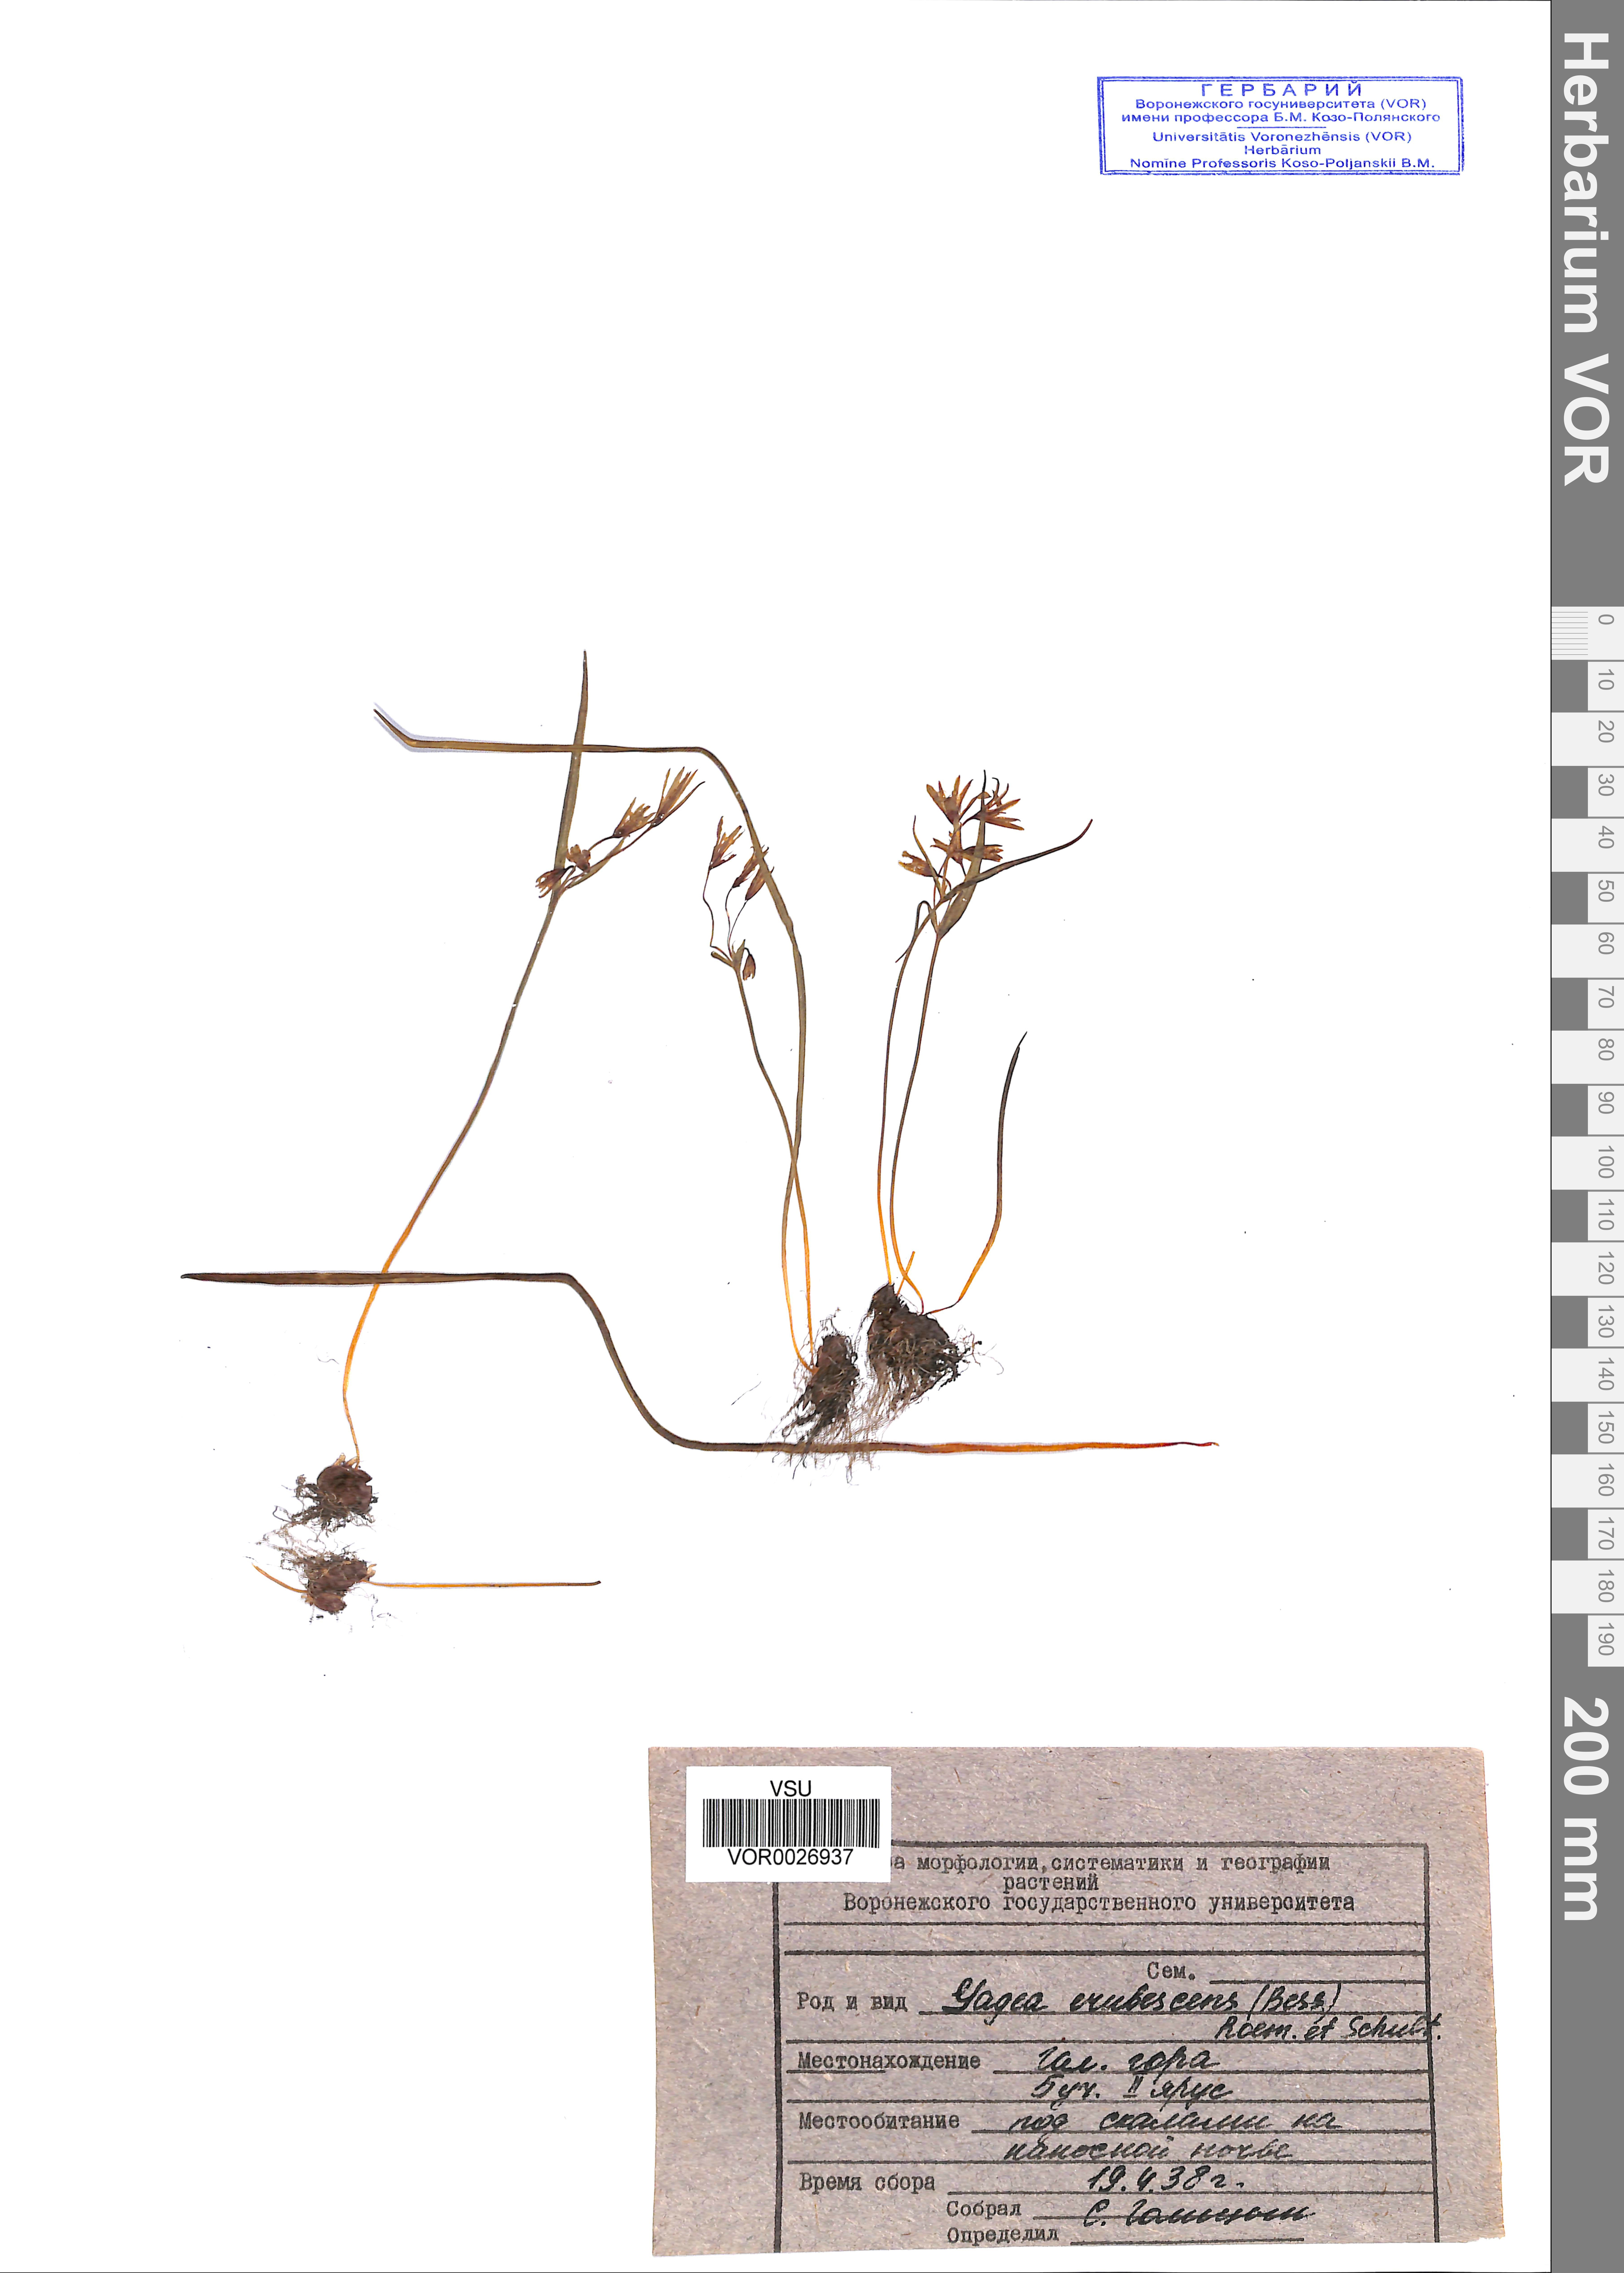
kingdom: Plantae
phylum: Tracheophyta
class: Liliopsida
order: Liliales
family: Liliaceae
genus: Gagea
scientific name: Gagea fragifera
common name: Lily
